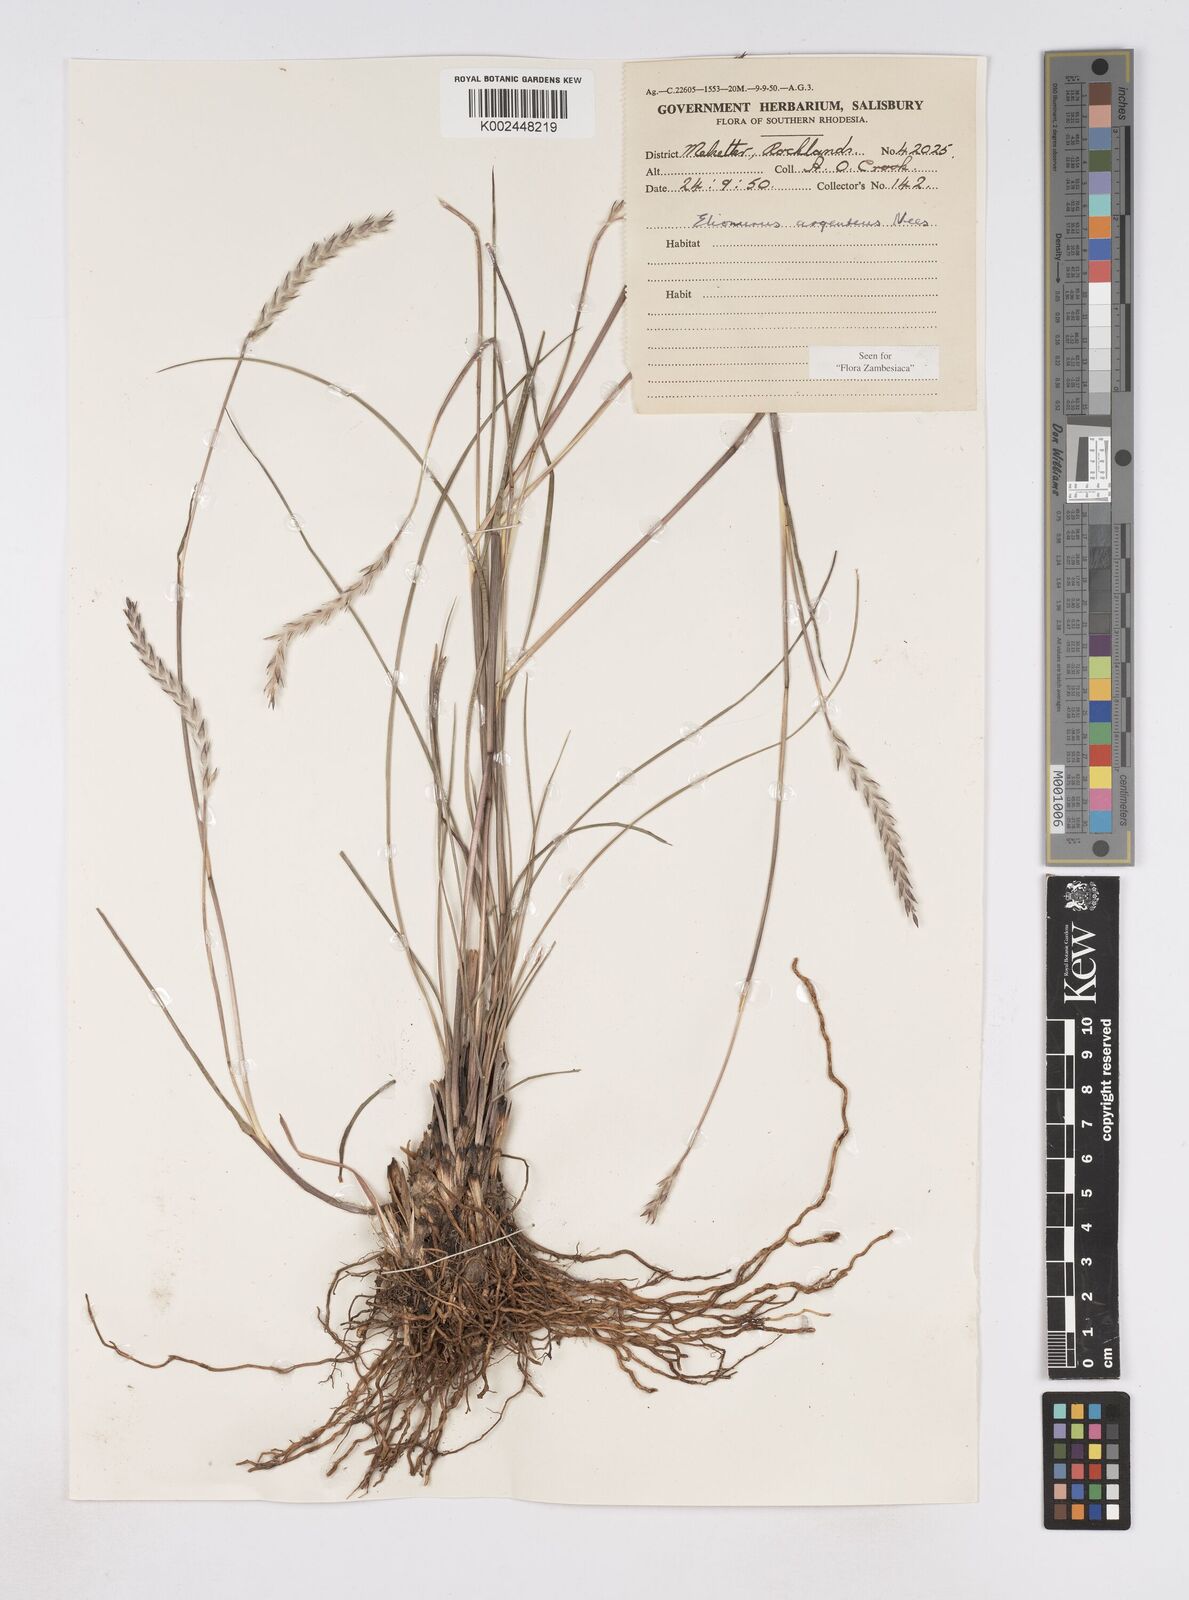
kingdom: Plantae
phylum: Tracheophyta
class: Liliopsida
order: Poales
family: Poaceae
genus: Elionurus
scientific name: Elionurus muticus
